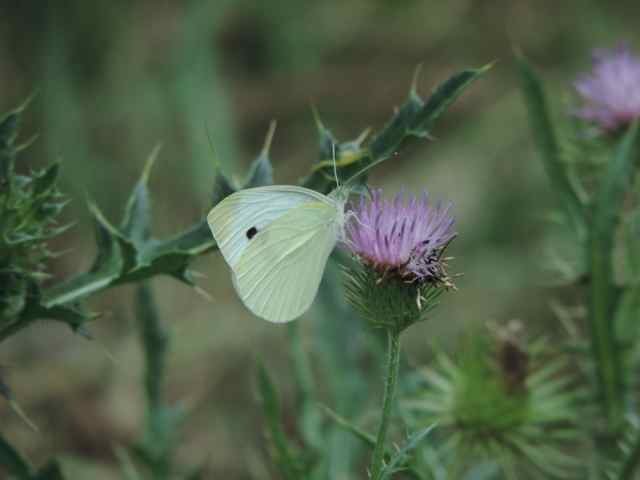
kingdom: Animalia
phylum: Arthropoda
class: Insecta
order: Lepidoptera
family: Pieridae
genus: Pieris
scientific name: Pieris rapae
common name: Cabbage White
